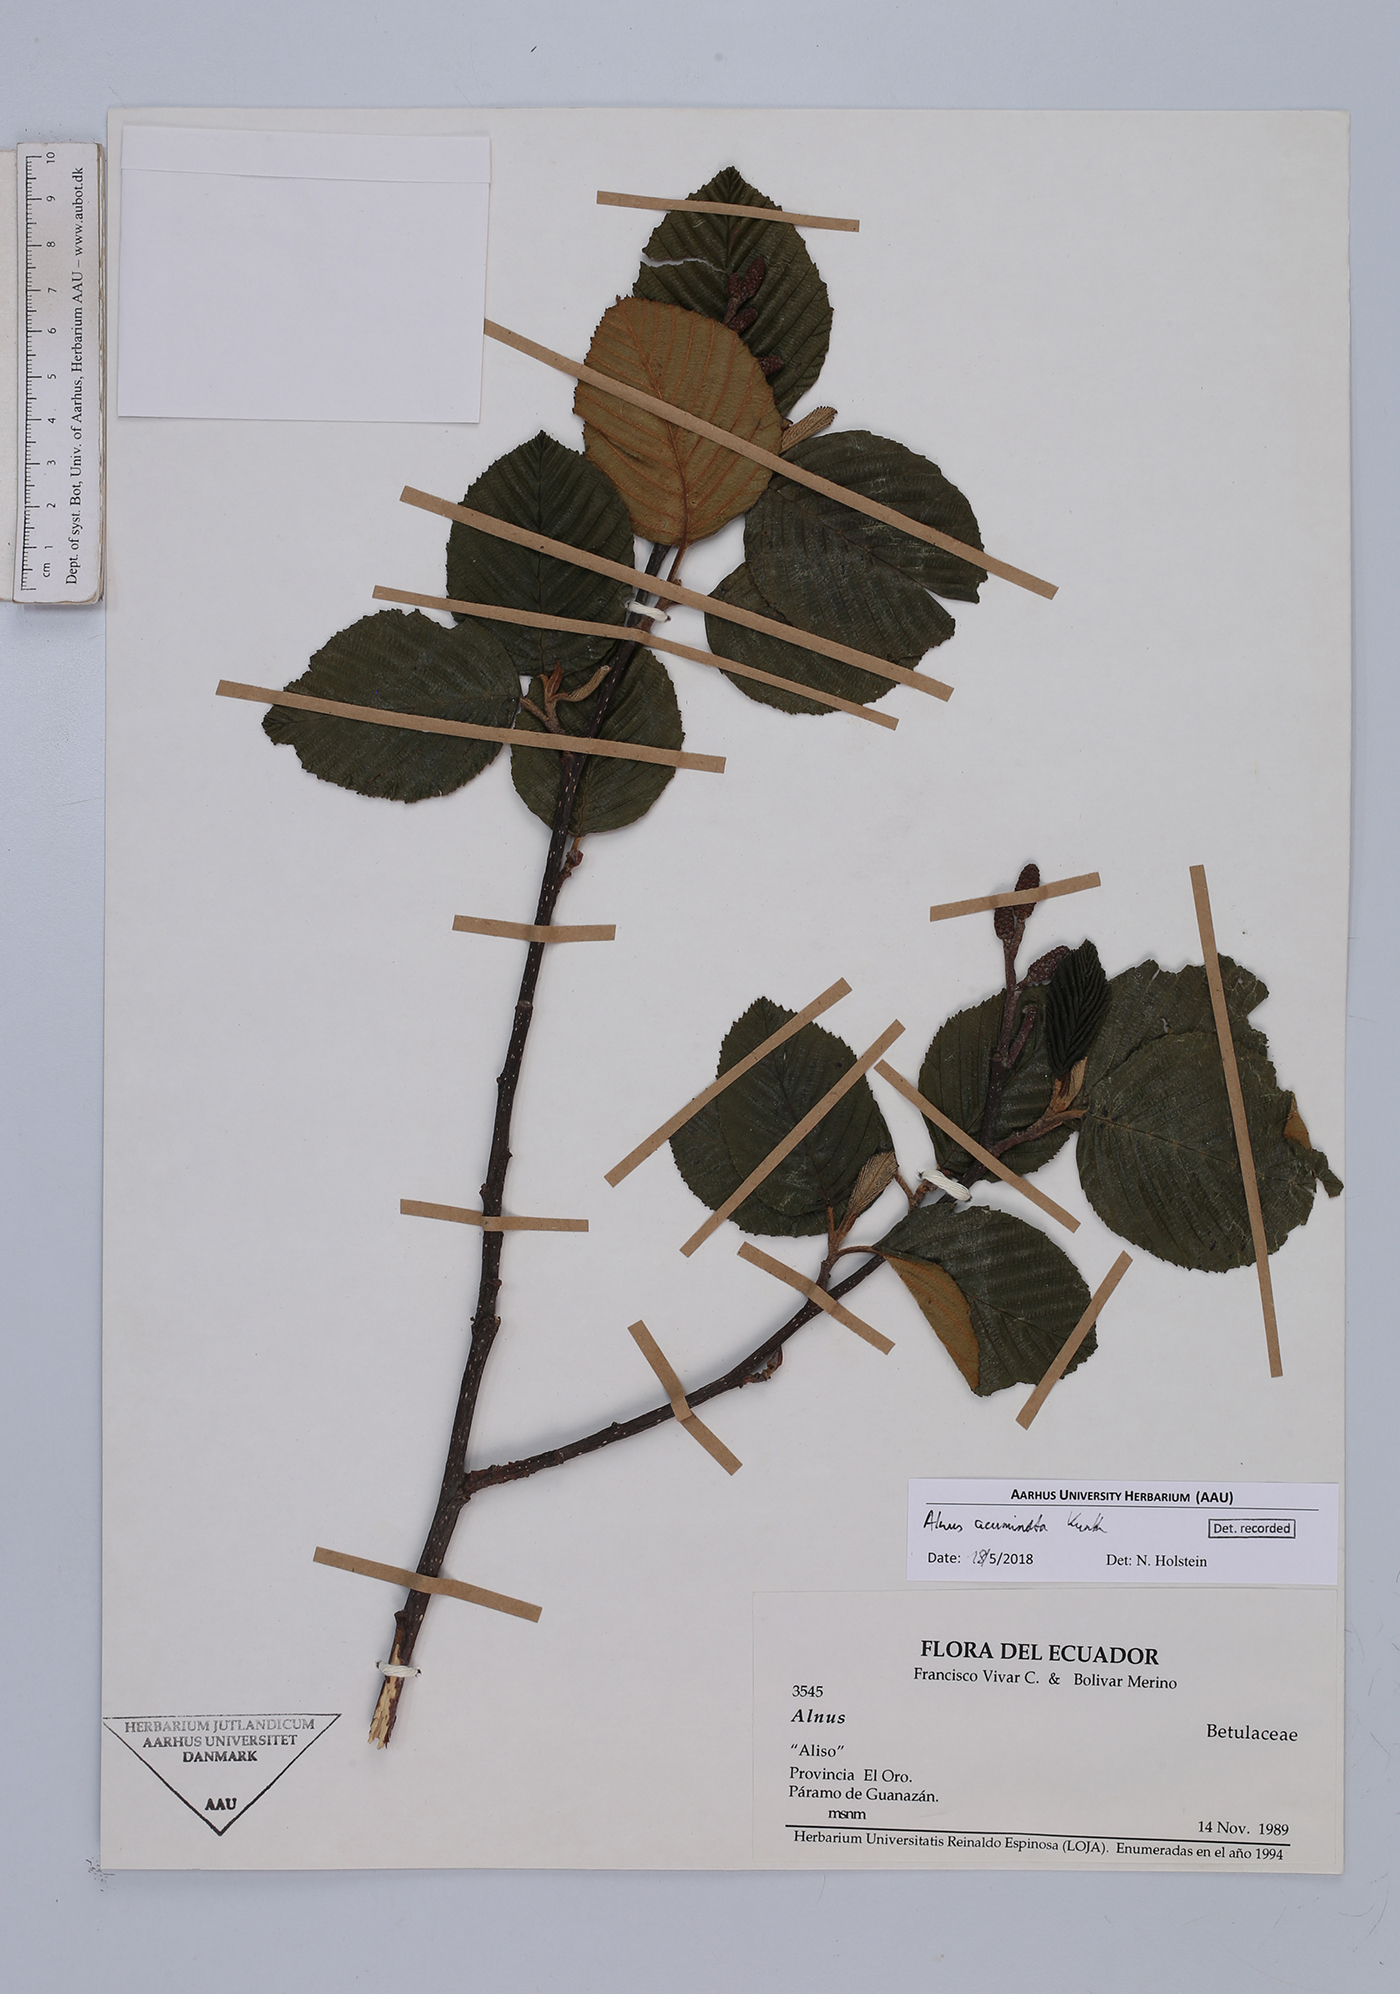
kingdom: Plantae
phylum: Tracheophyta
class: Magnoliopsida
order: Fagales
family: Betulaceae
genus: Alnus
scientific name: Alnus acuminata
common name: Alder
